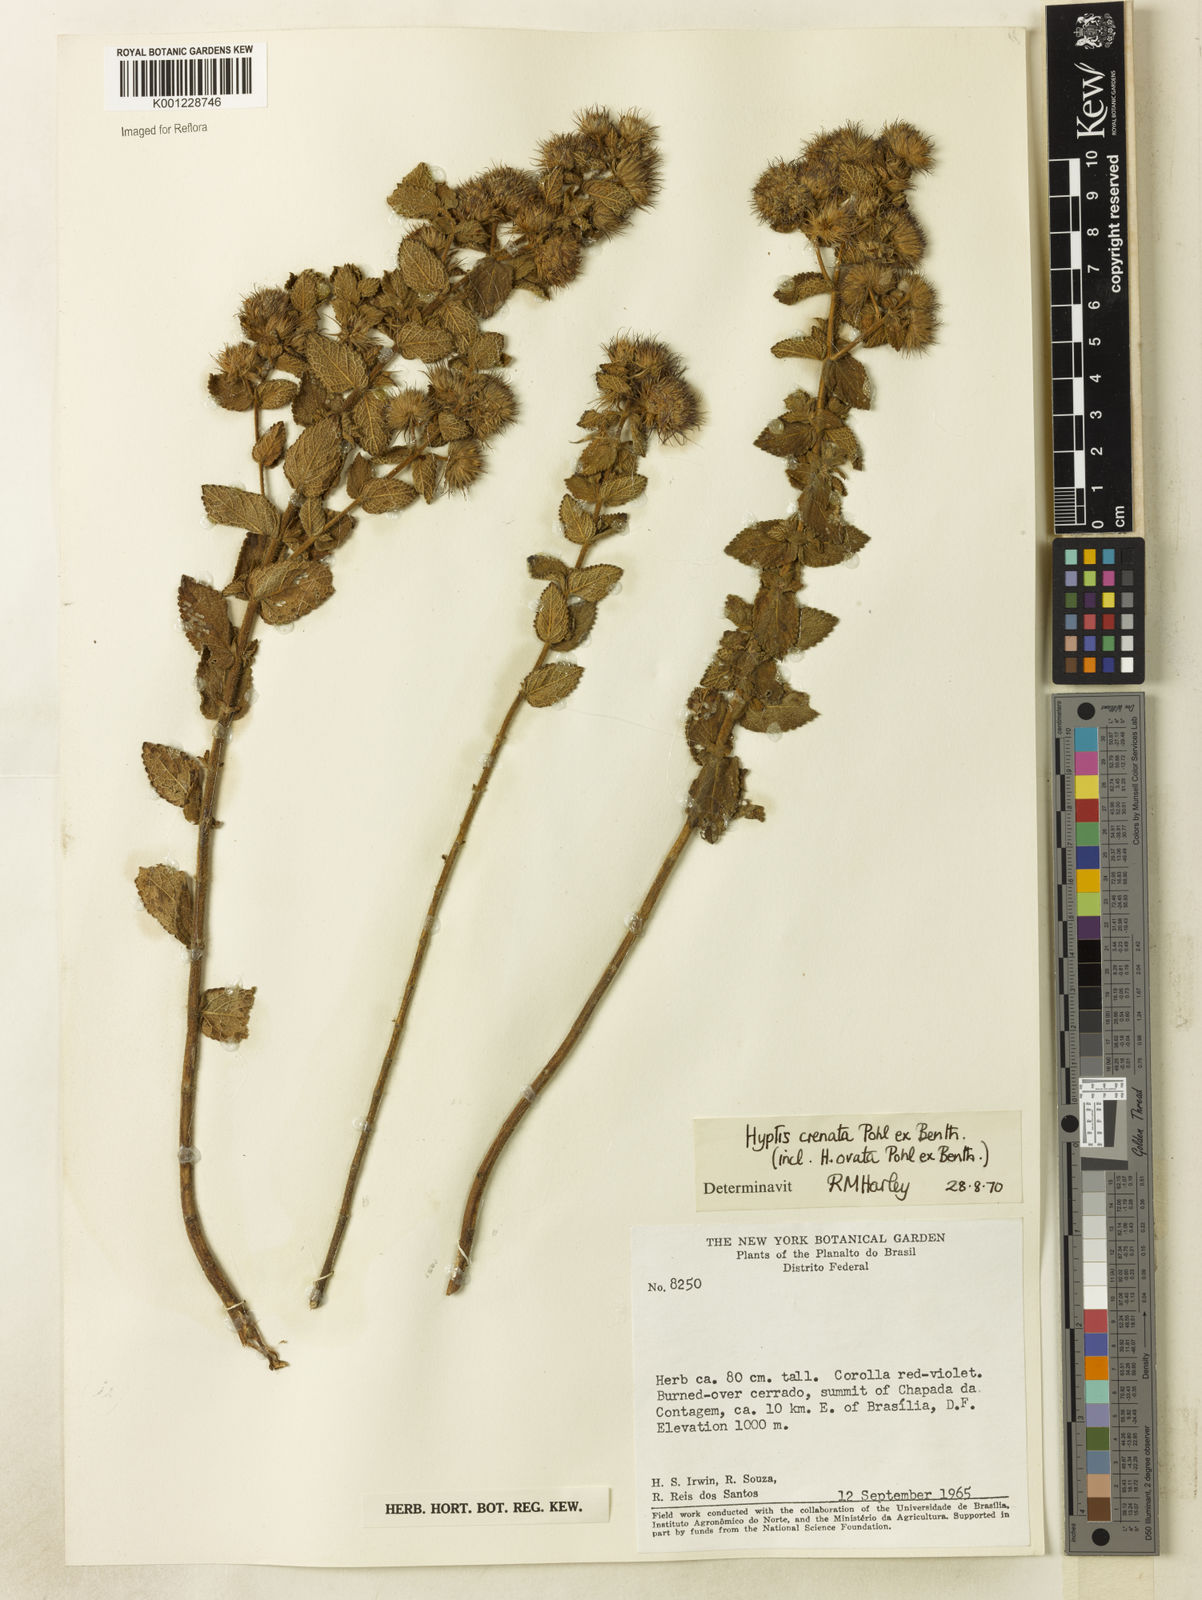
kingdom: Plantae
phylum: Tracheophyta
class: Magnoliopsida
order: Lamiales
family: Lamiaceae
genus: Hyptis
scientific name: Hyptis crenata
